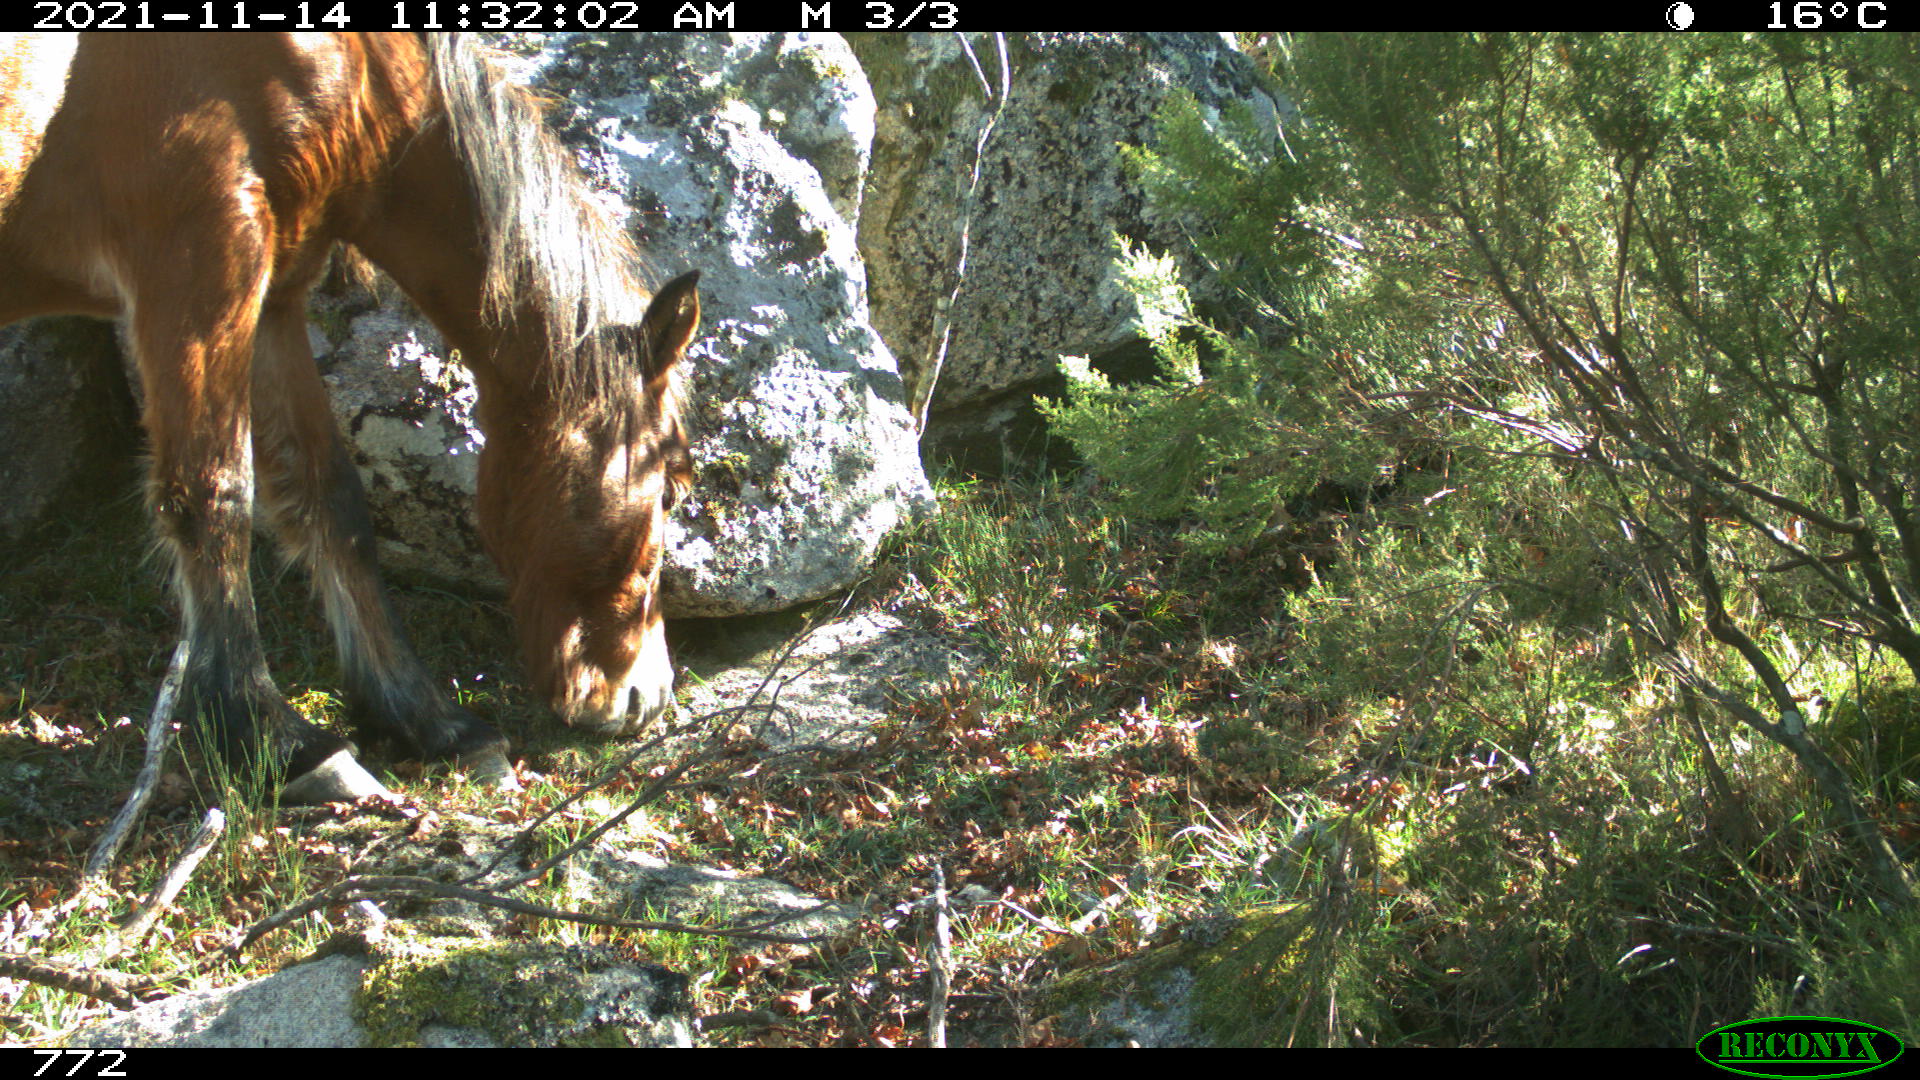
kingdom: Animalia
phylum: Chordata
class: Mammalia
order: Perissodactyla
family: Equidae
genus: Equus
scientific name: Equus caballus
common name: Horse
